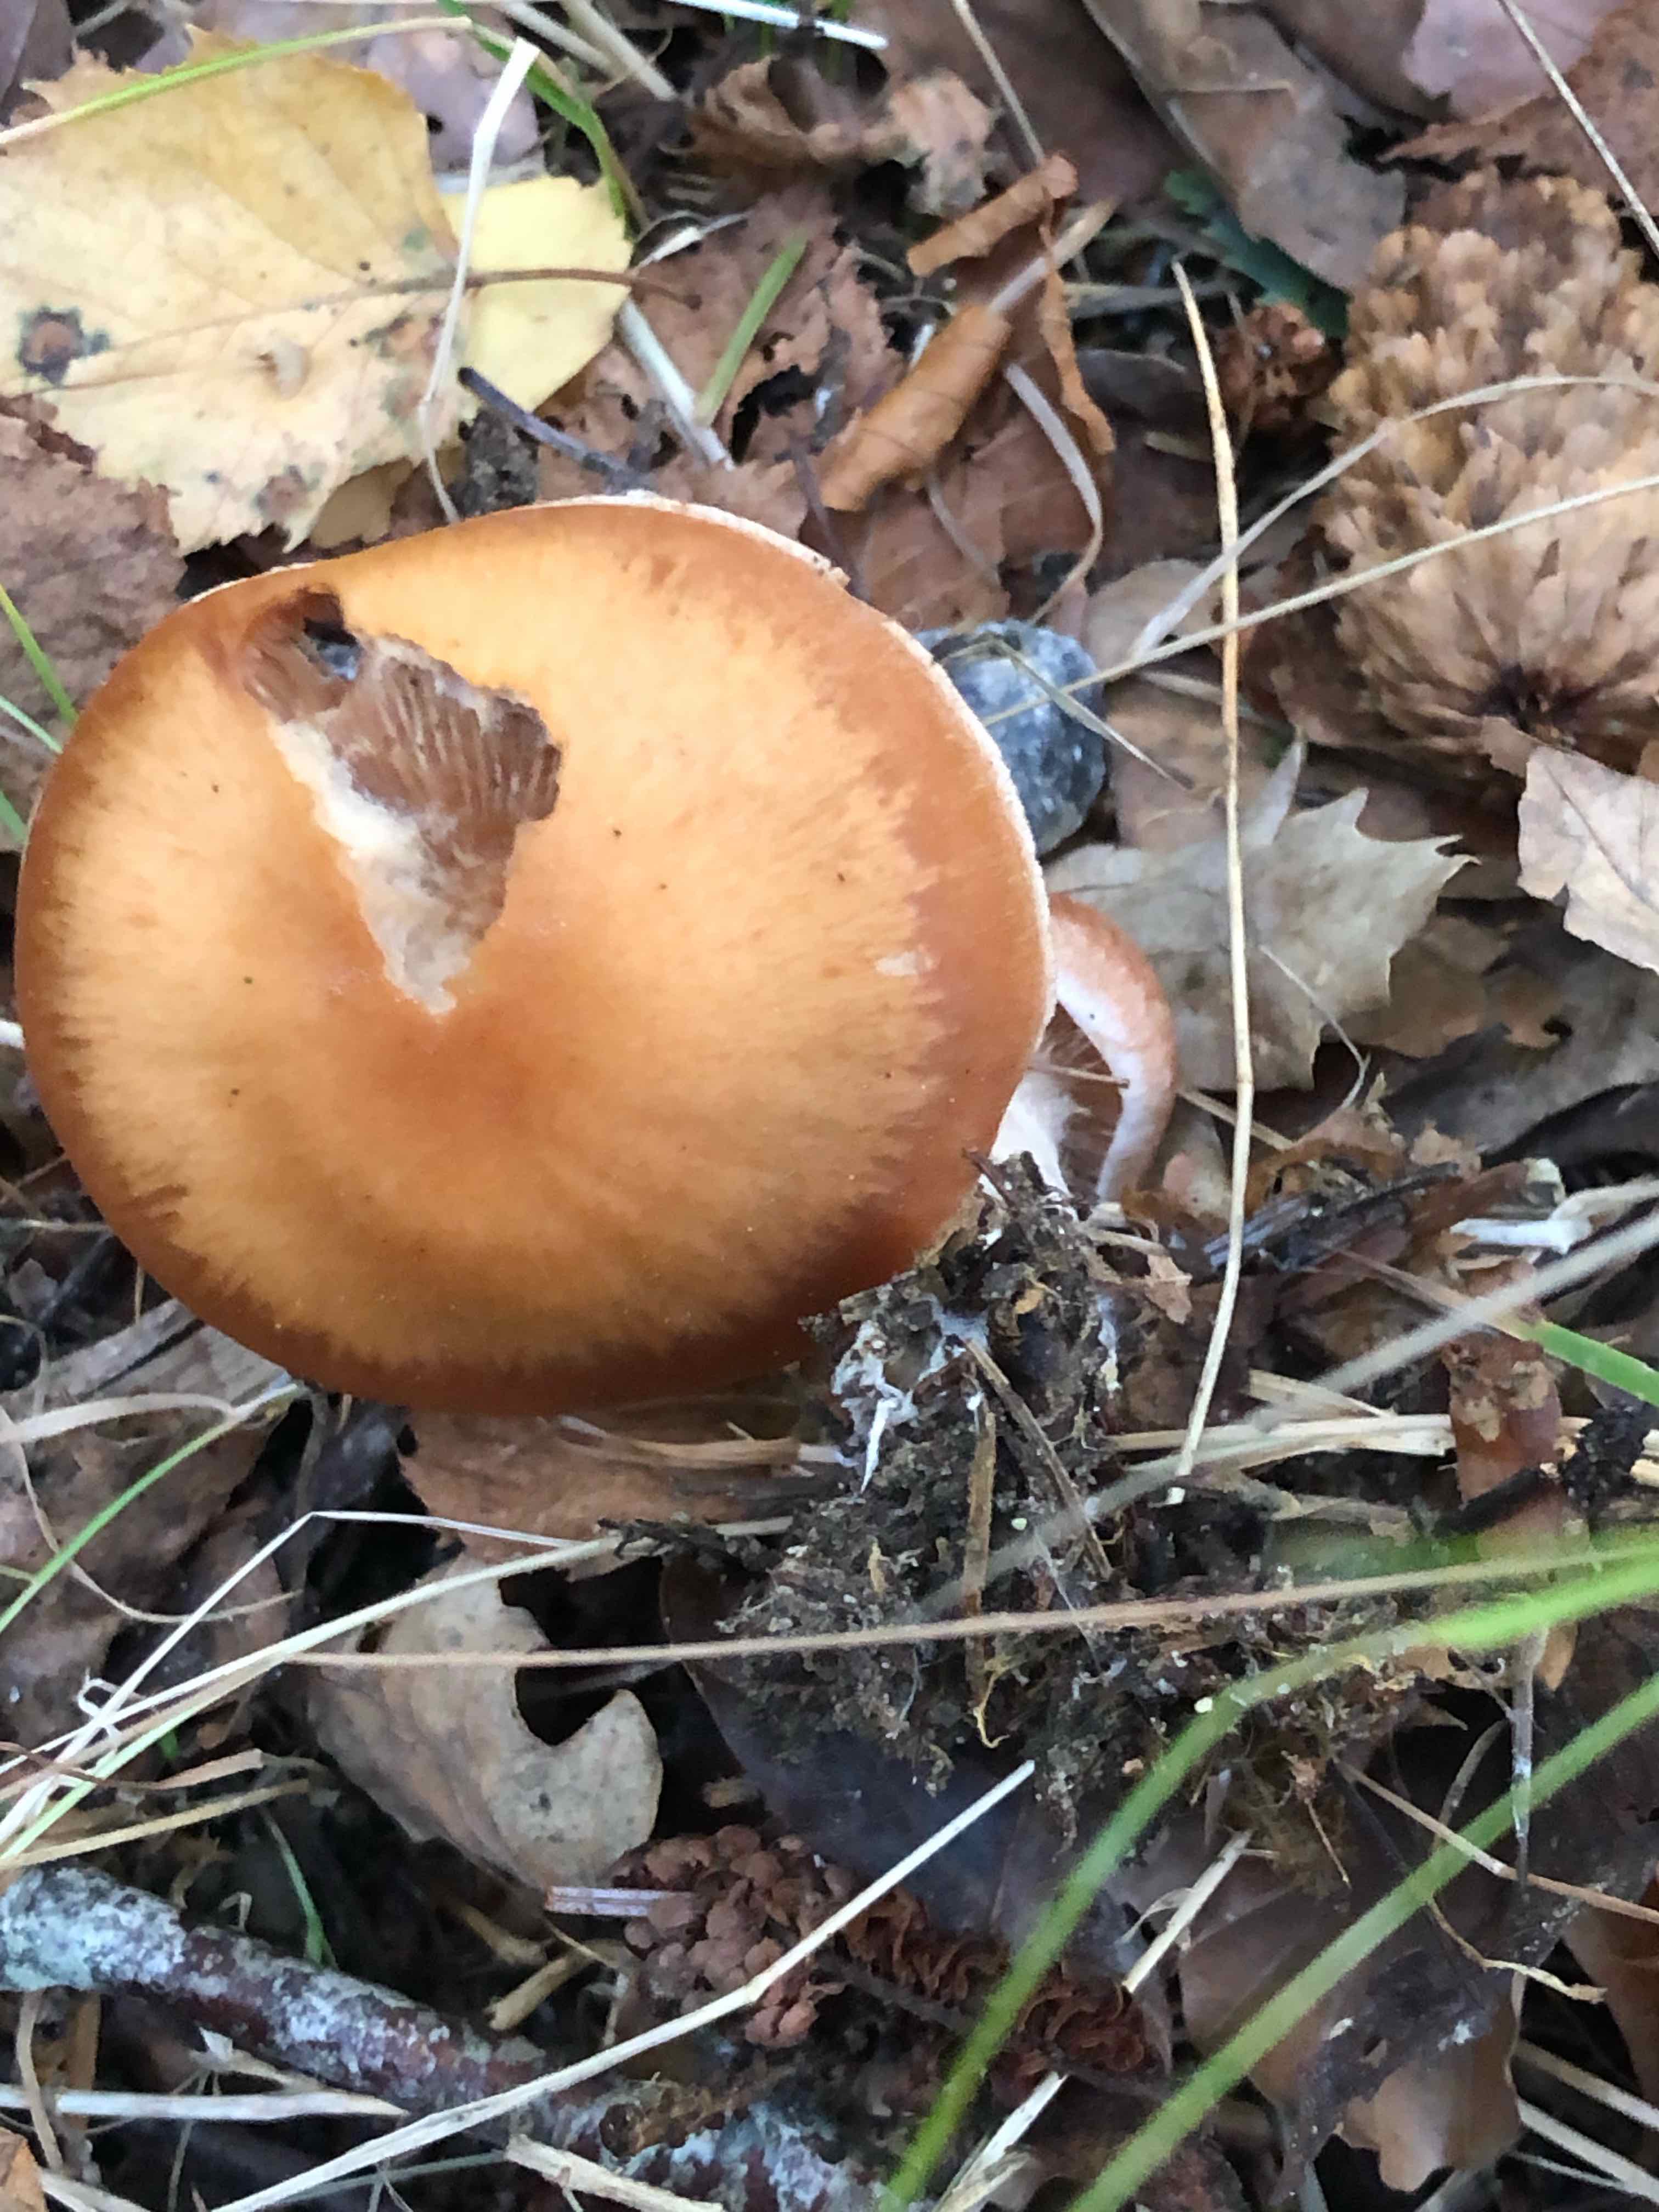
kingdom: Fungi
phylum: Basidiomycota
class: Agaricomycetes
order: Agaricales
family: Cortinariaceae
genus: Cortinarius
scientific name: Cortinarius subbalaustinus
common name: birke-slørhat
